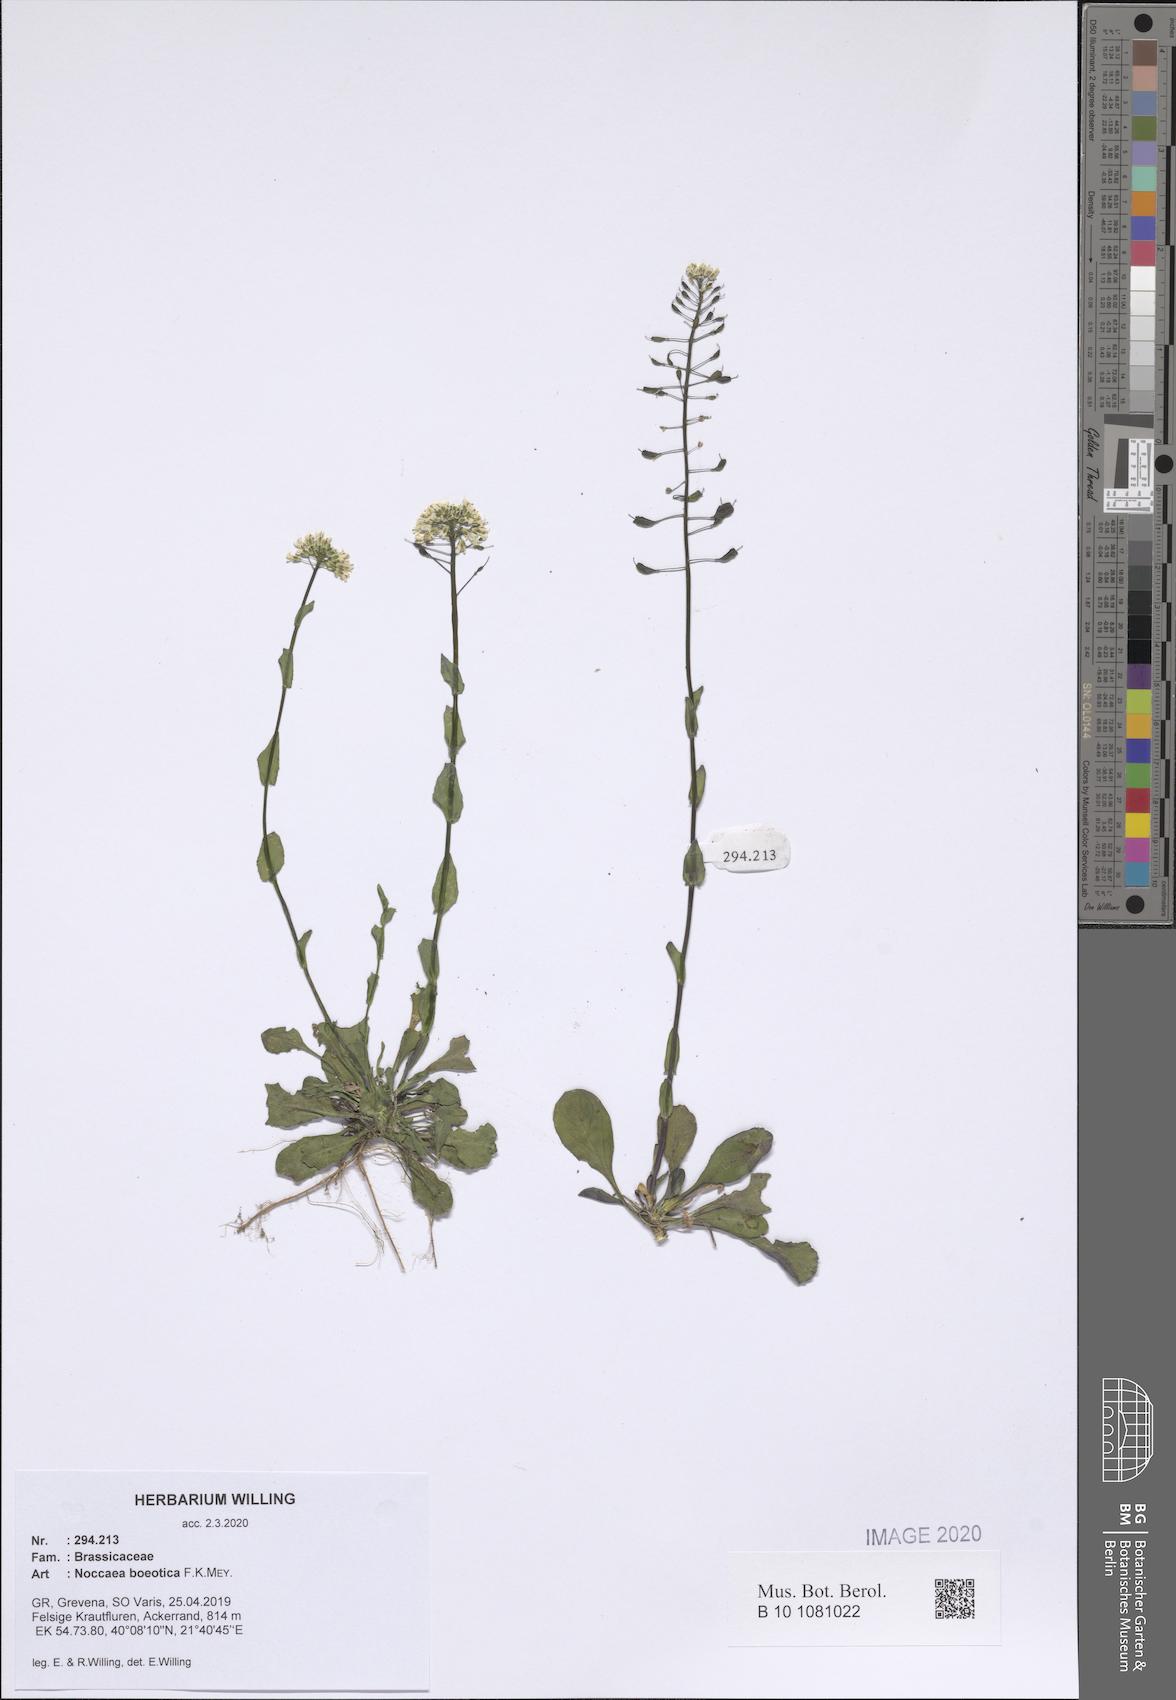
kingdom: Plantae
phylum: Tracheophyta
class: Magnoliopsida
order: Brassicales
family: Brassicaceae
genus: Noccaea
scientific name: Noccaea boeotica
